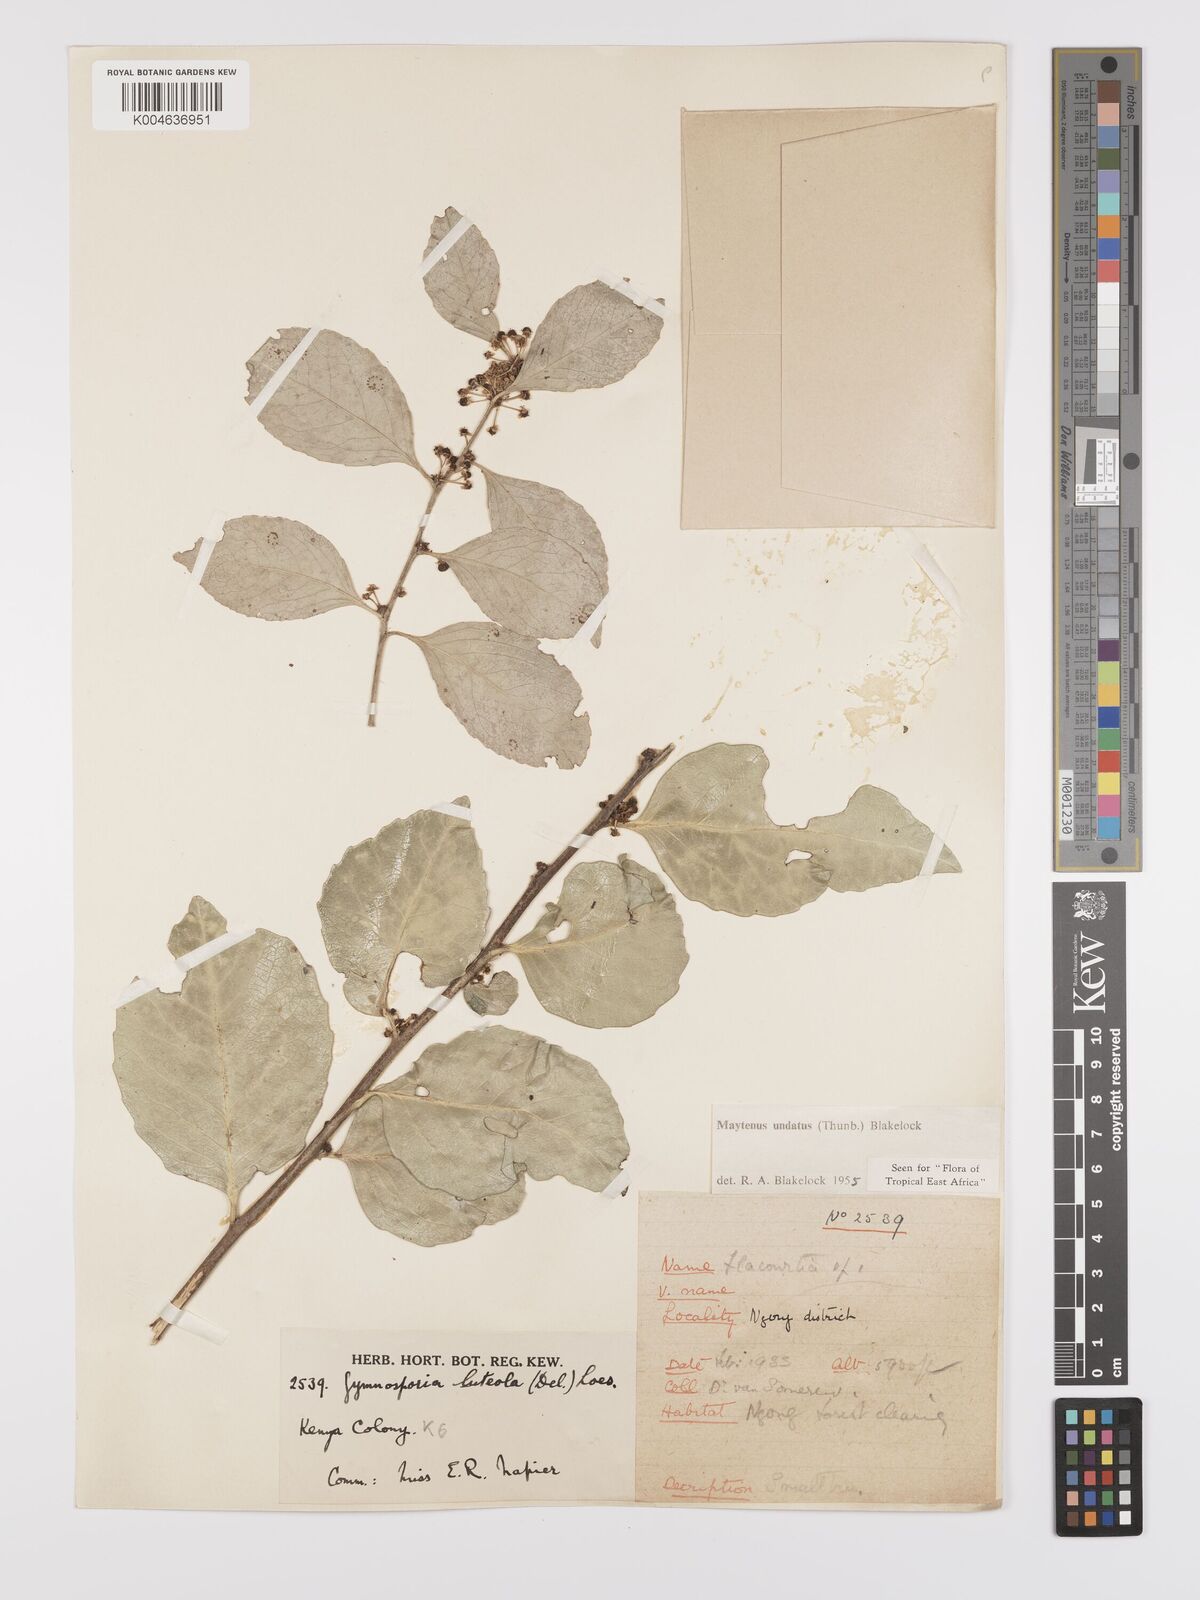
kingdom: Plantae
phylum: Tracheophyta
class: Magnoliopsida
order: Celastrales
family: Celastraceae
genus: Gymnosporia
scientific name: Gymnosporia undata
